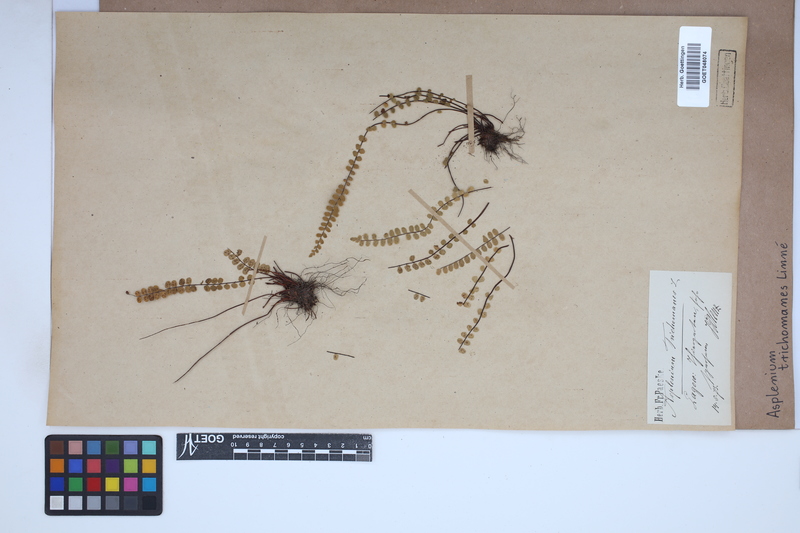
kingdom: Plantae
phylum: Tracheophyta
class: Polypodiopsida
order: Polypodiales
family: Aspleniaceae
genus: Asplenium
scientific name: Asplenium trichomanes
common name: Maidenhair spleenwort
